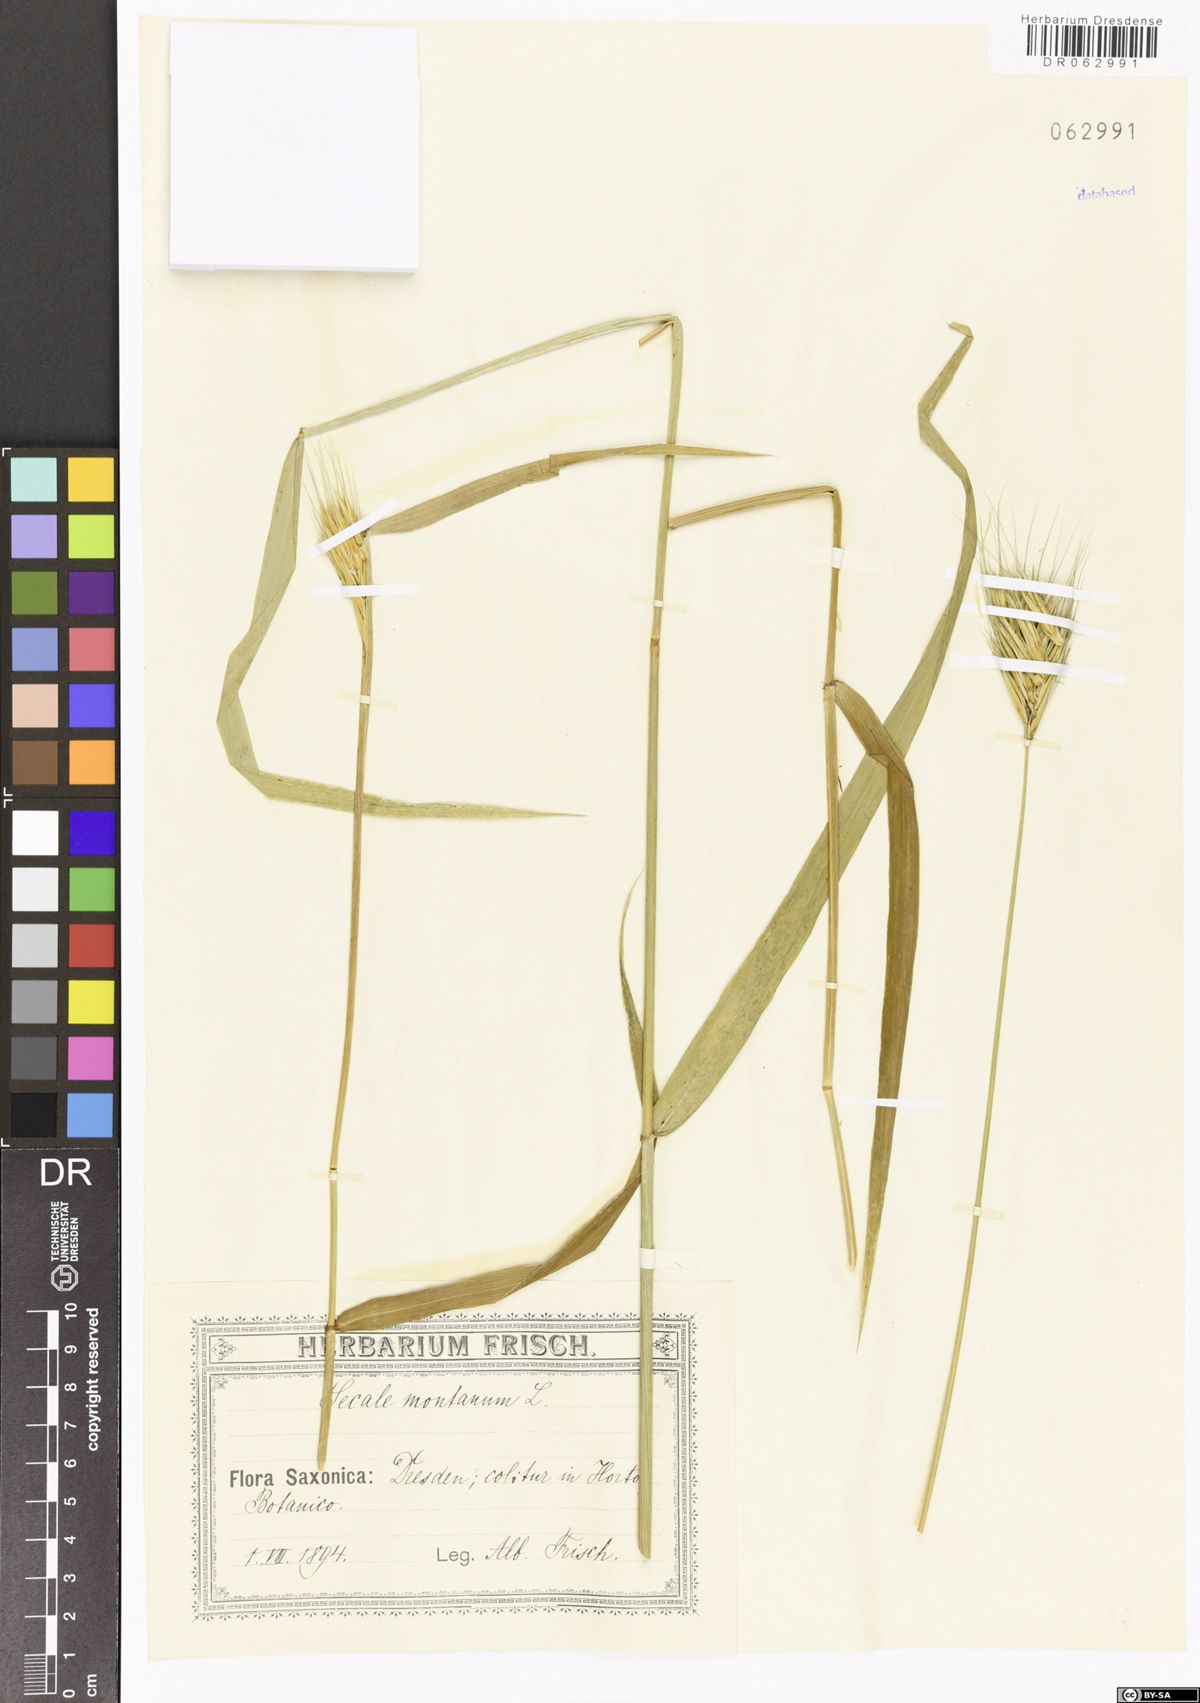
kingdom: Plantae
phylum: Tracheophyta
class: Liliopsida
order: Poales
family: Poaceae
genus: Secale
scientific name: Secale strictum
